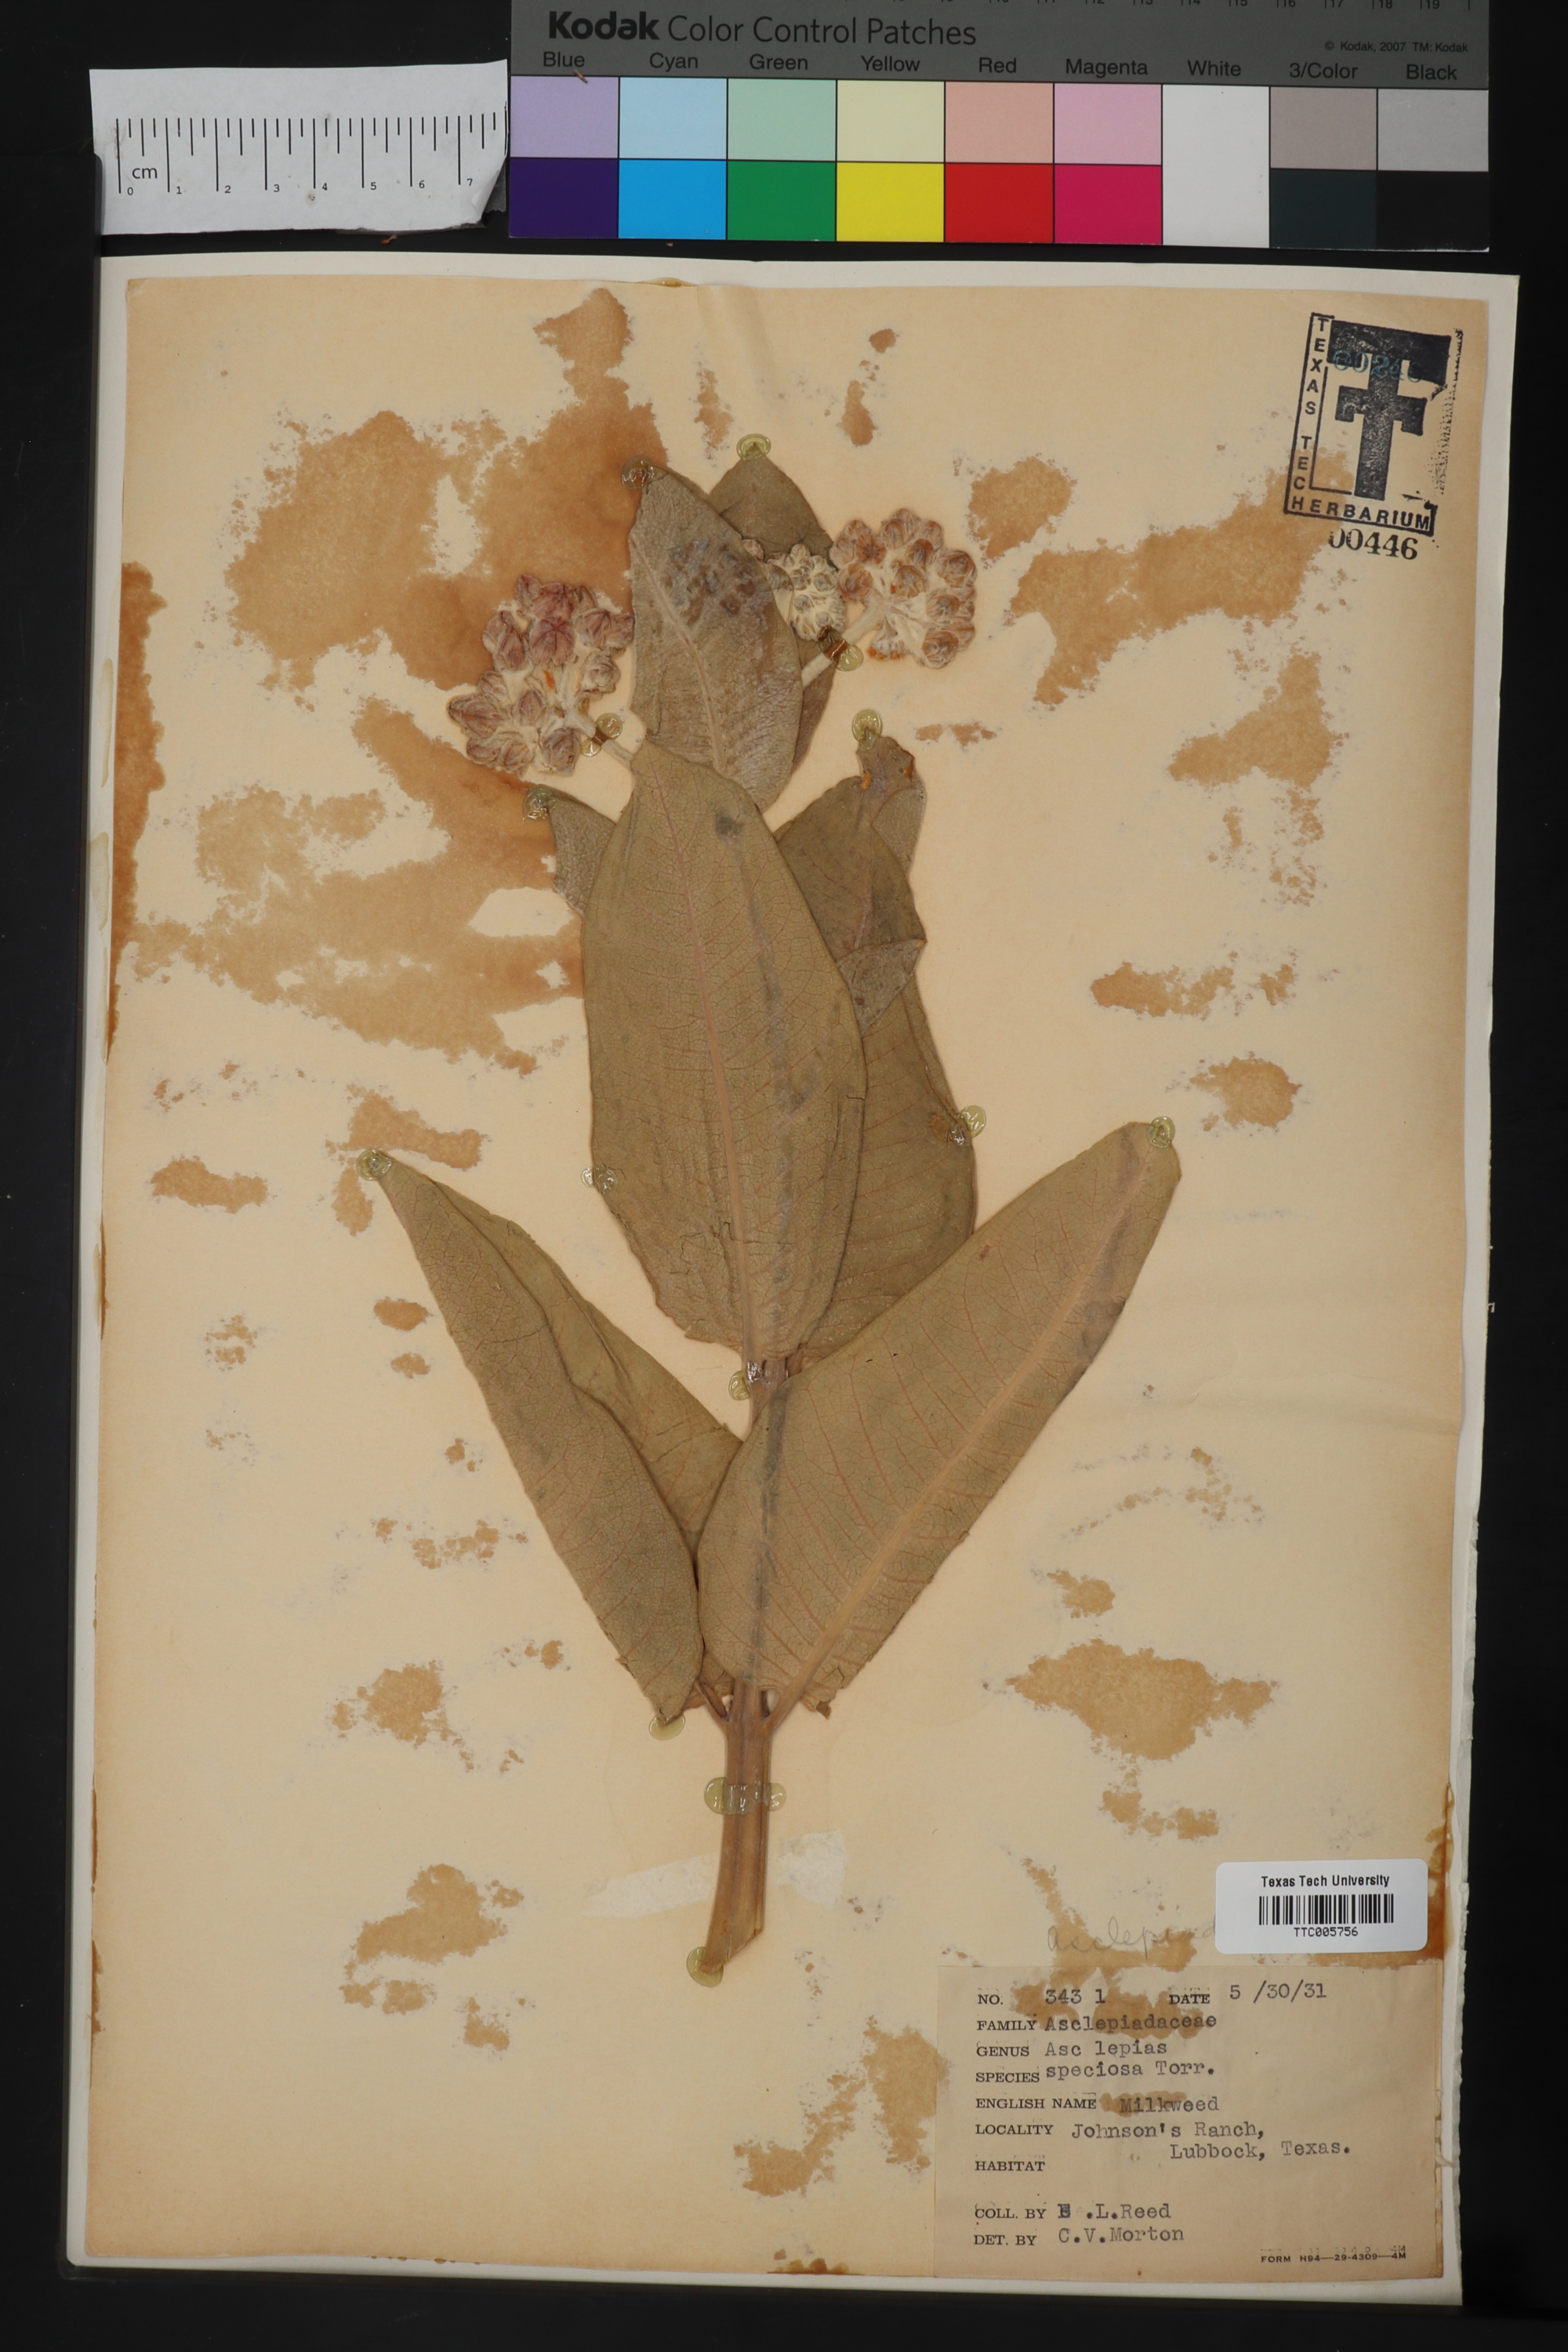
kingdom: Plantae
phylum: Tracheophyta
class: Magnoliopsida
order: Gentianales
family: Apocynaceae
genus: Asclepias
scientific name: Asclepias speciosa
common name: Showy milkweed
